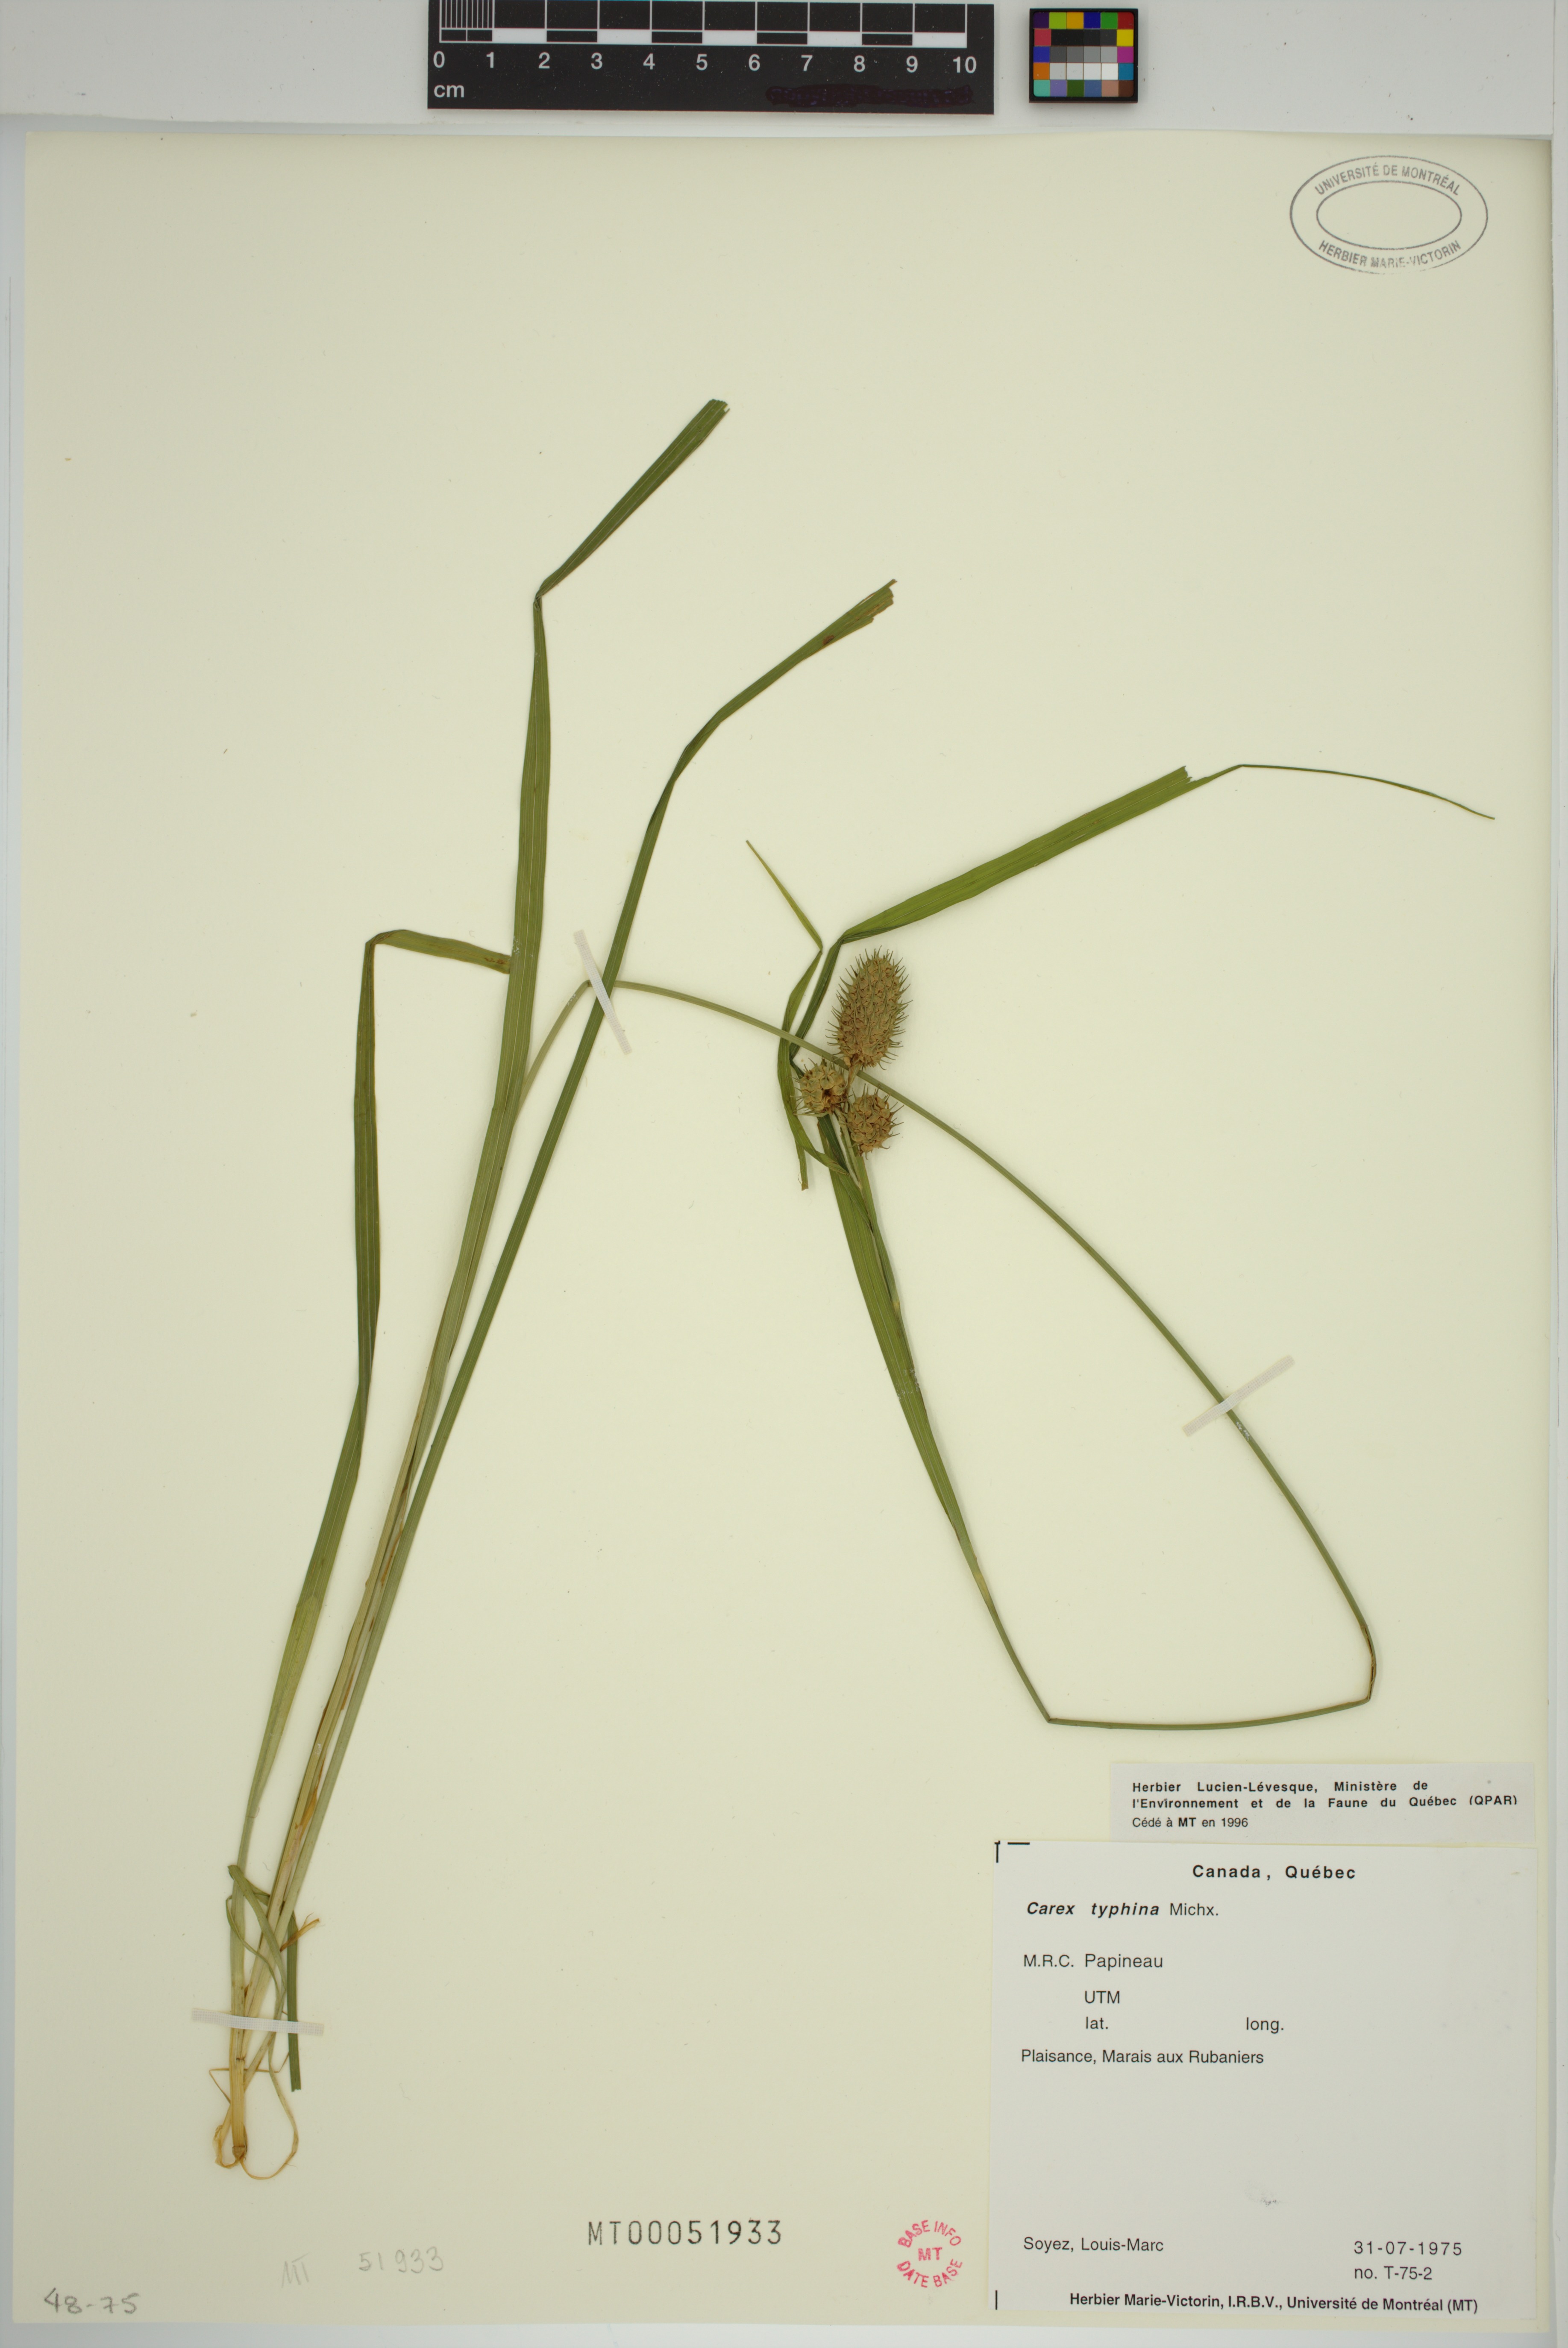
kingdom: Plantae
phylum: Tracheophyta
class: Liliopsida
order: Poales
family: Cyperaceae
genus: Carex
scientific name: Carex typhina
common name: Cattail sedge
